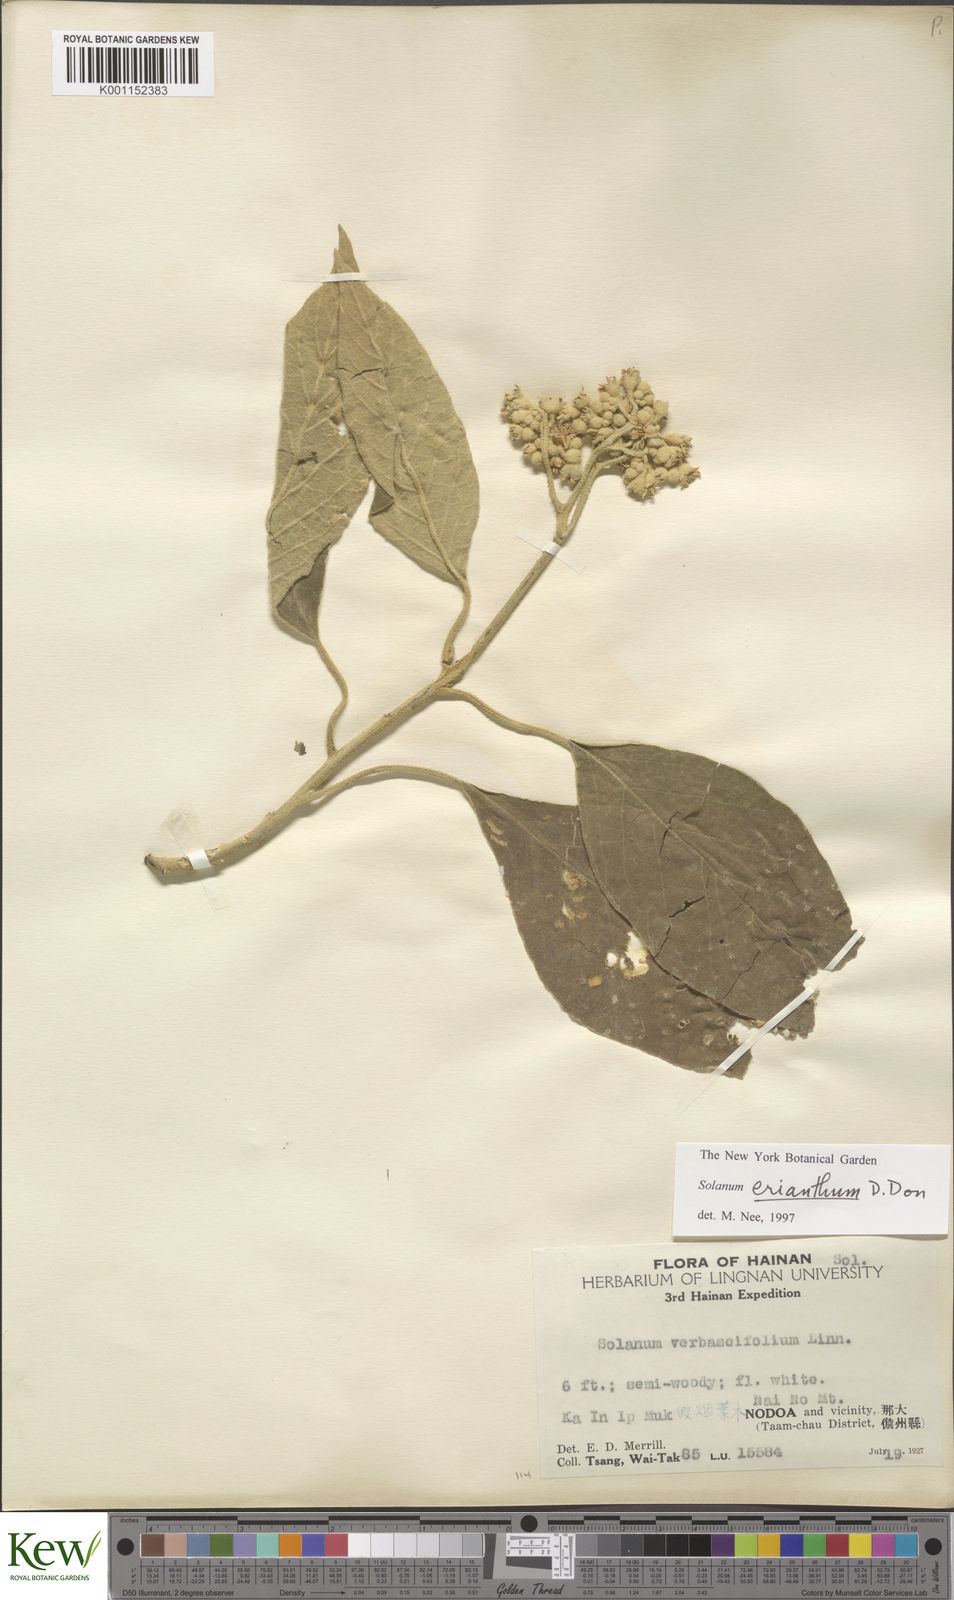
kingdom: Plantae
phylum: Tracheophyta
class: Magnoliopsida
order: Solanales
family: Solanaceae
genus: Solanum
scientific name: Solanum donianum
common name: Mullein nightshade
